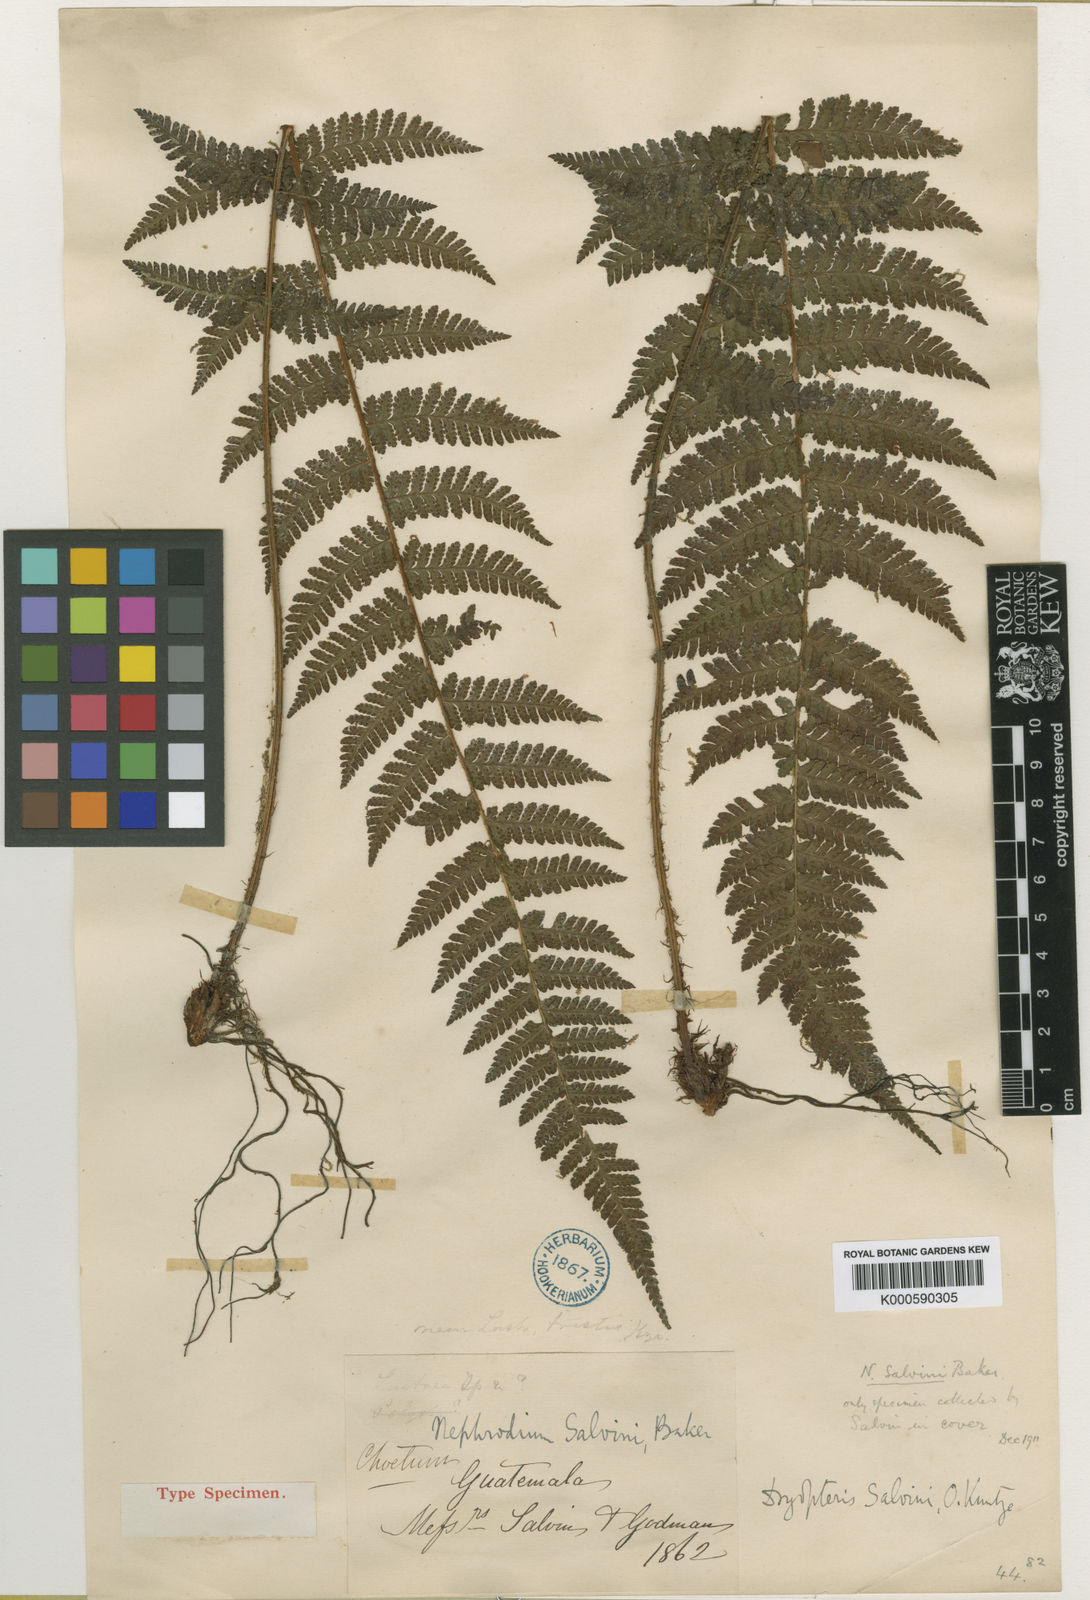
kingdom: Plantae
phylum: Tracheophyta
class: Polypodiopsida
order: Polypodiales
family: Dryopteridaceae
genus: Ctenitis
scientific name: Ctenitis salvinii
